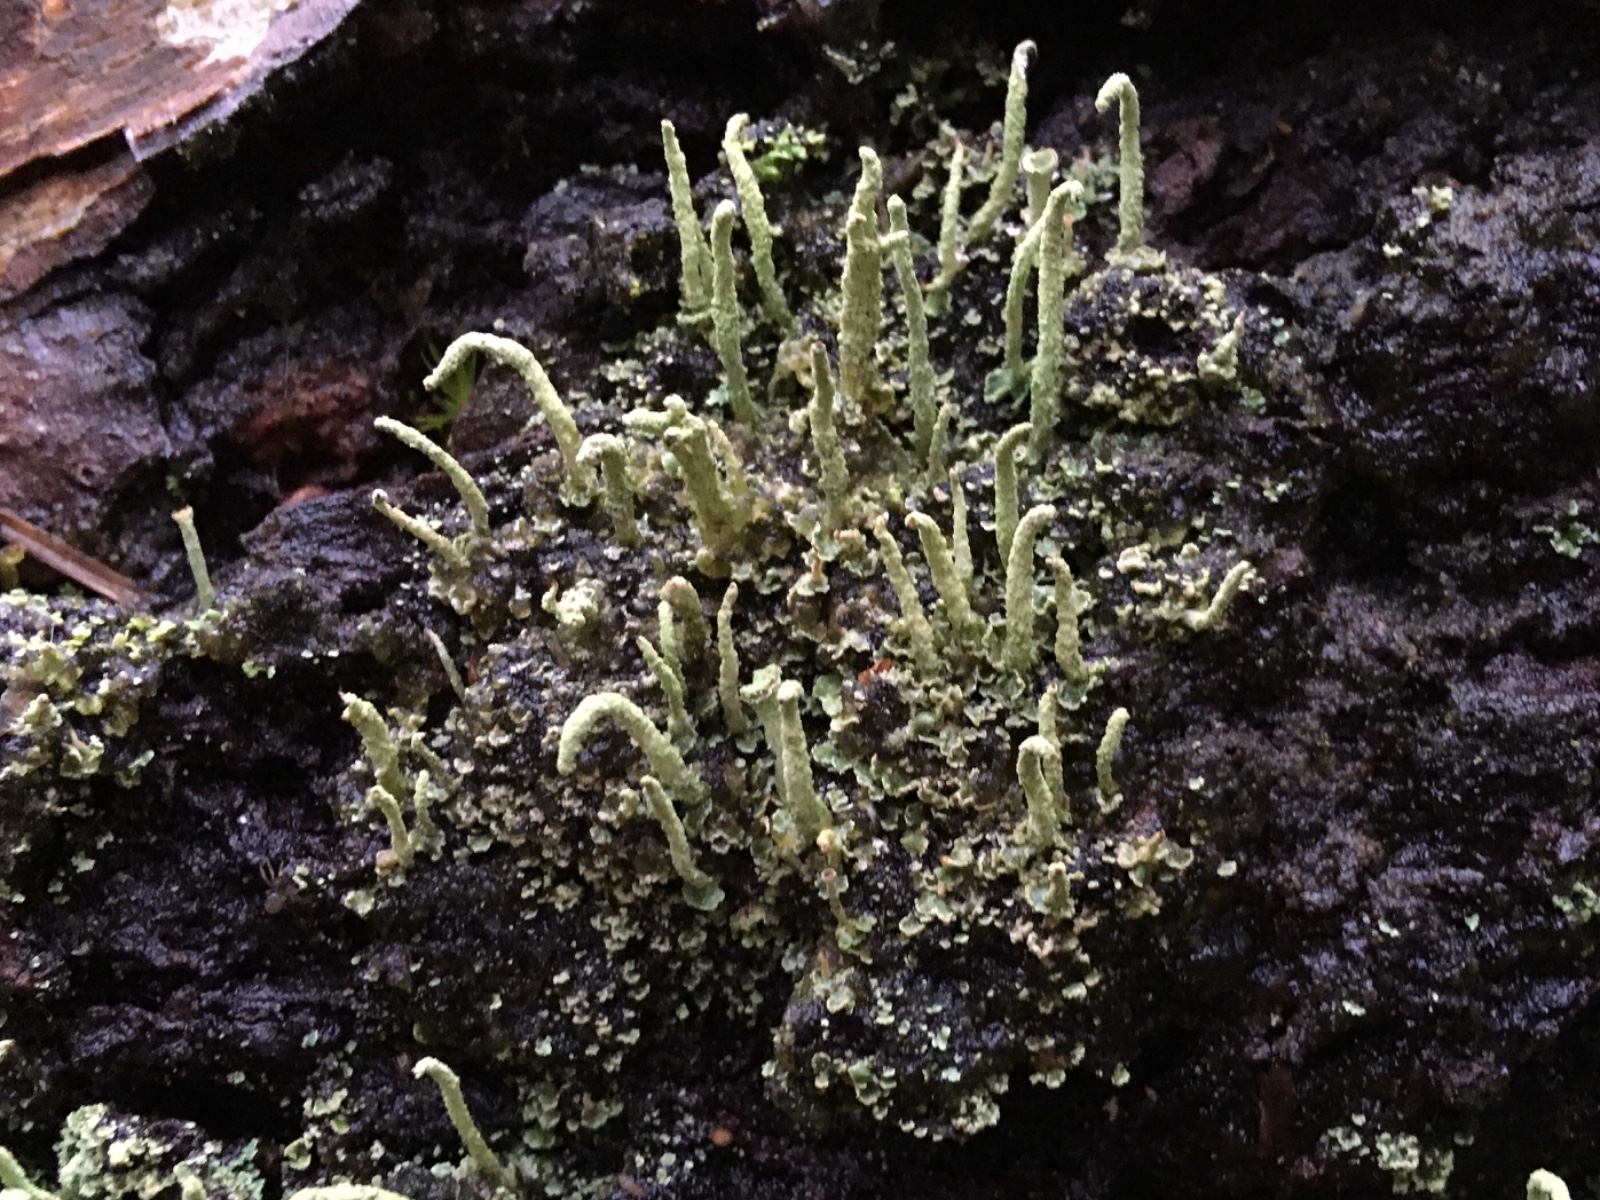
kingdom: Fungi
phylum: Ascomycota
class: Lecanoromycetes
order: Lecanorales
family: Cladoniaceae
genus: Cladonia
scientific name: Cladonia ochrochlora
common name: stød-bægerlav
